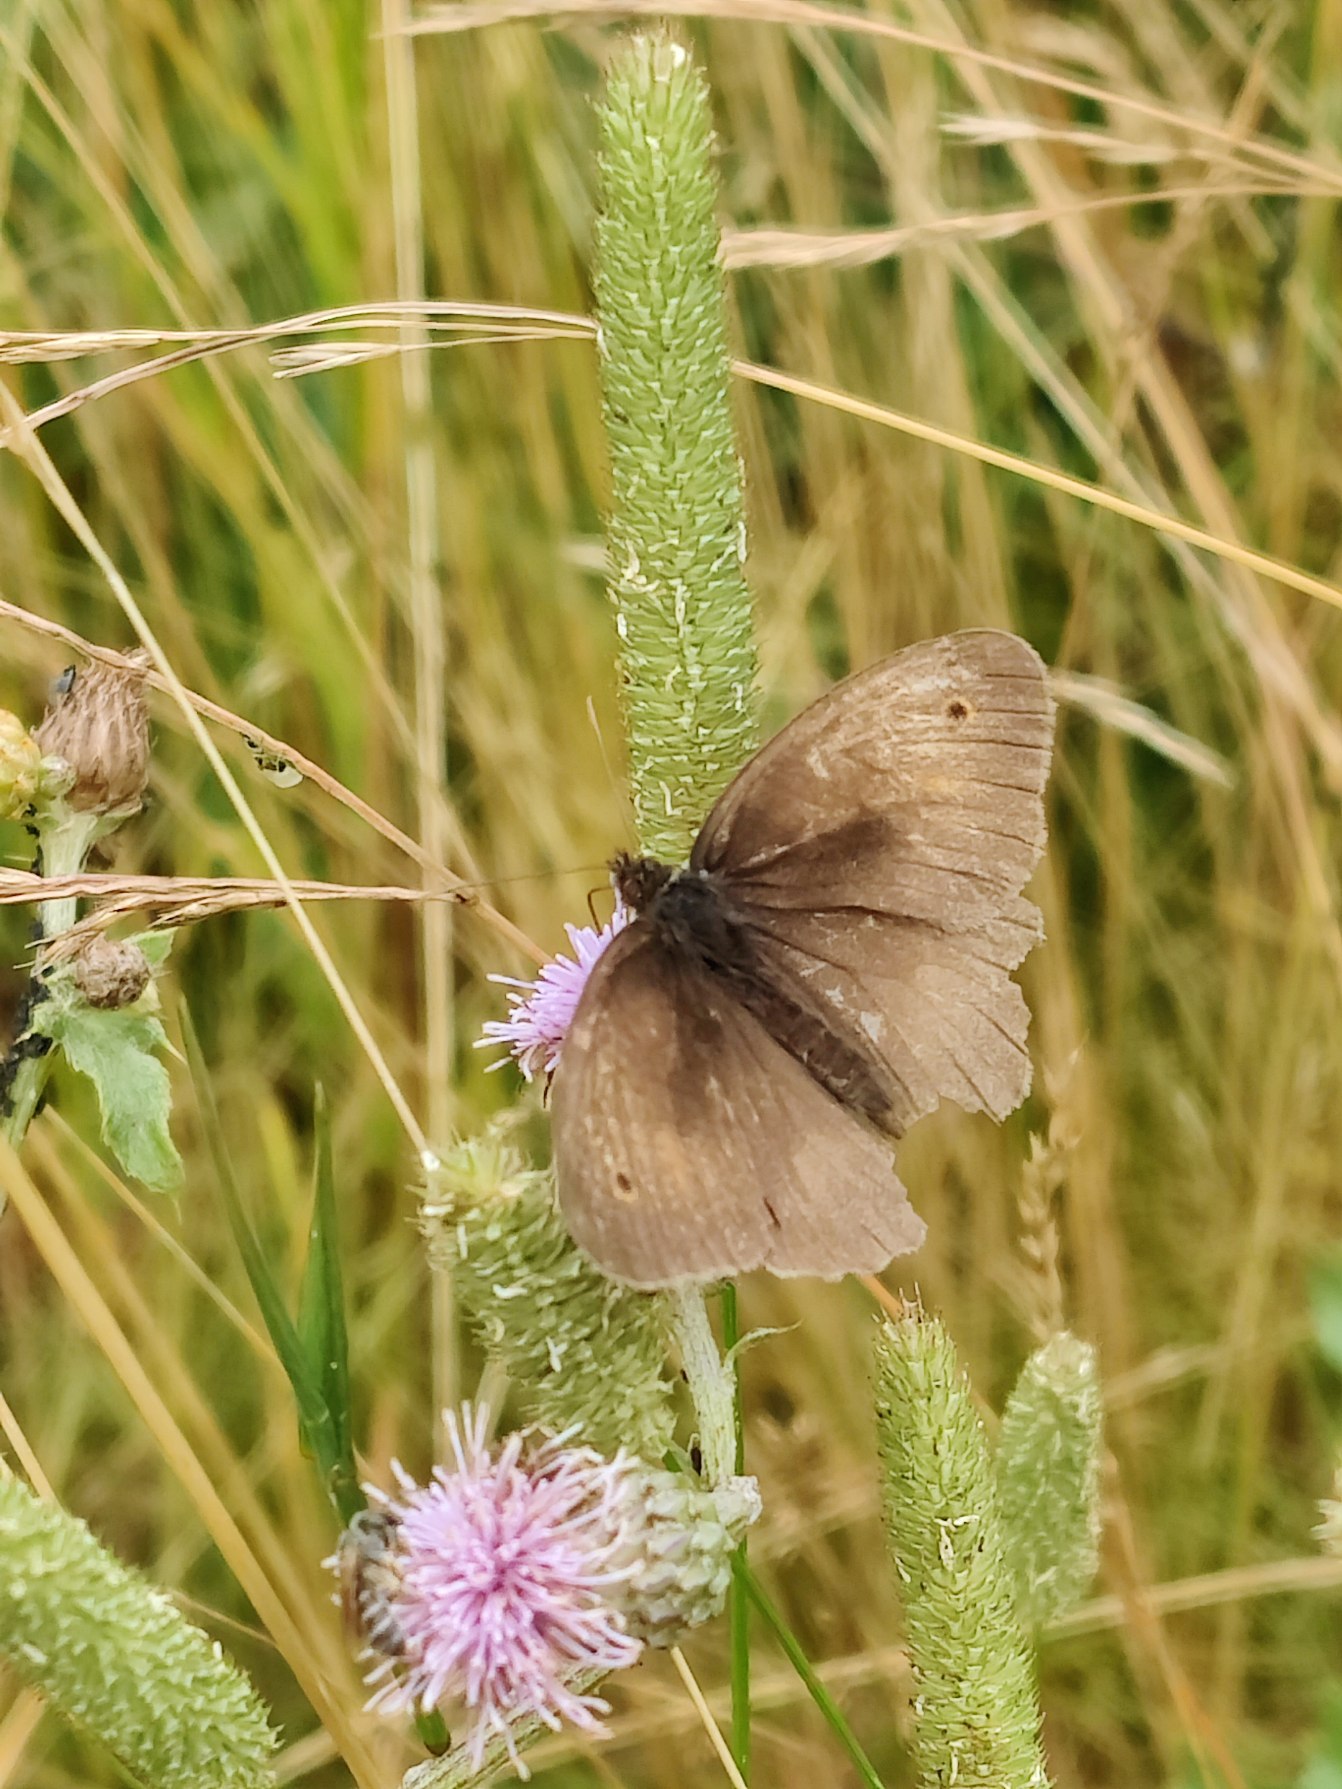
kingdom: Animalia
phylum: Arthropoda
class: Insecta
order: Lepidoptera
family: Nymphalidae
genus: Maniola
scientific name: Maniola jurtina
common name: Græsrandøje
